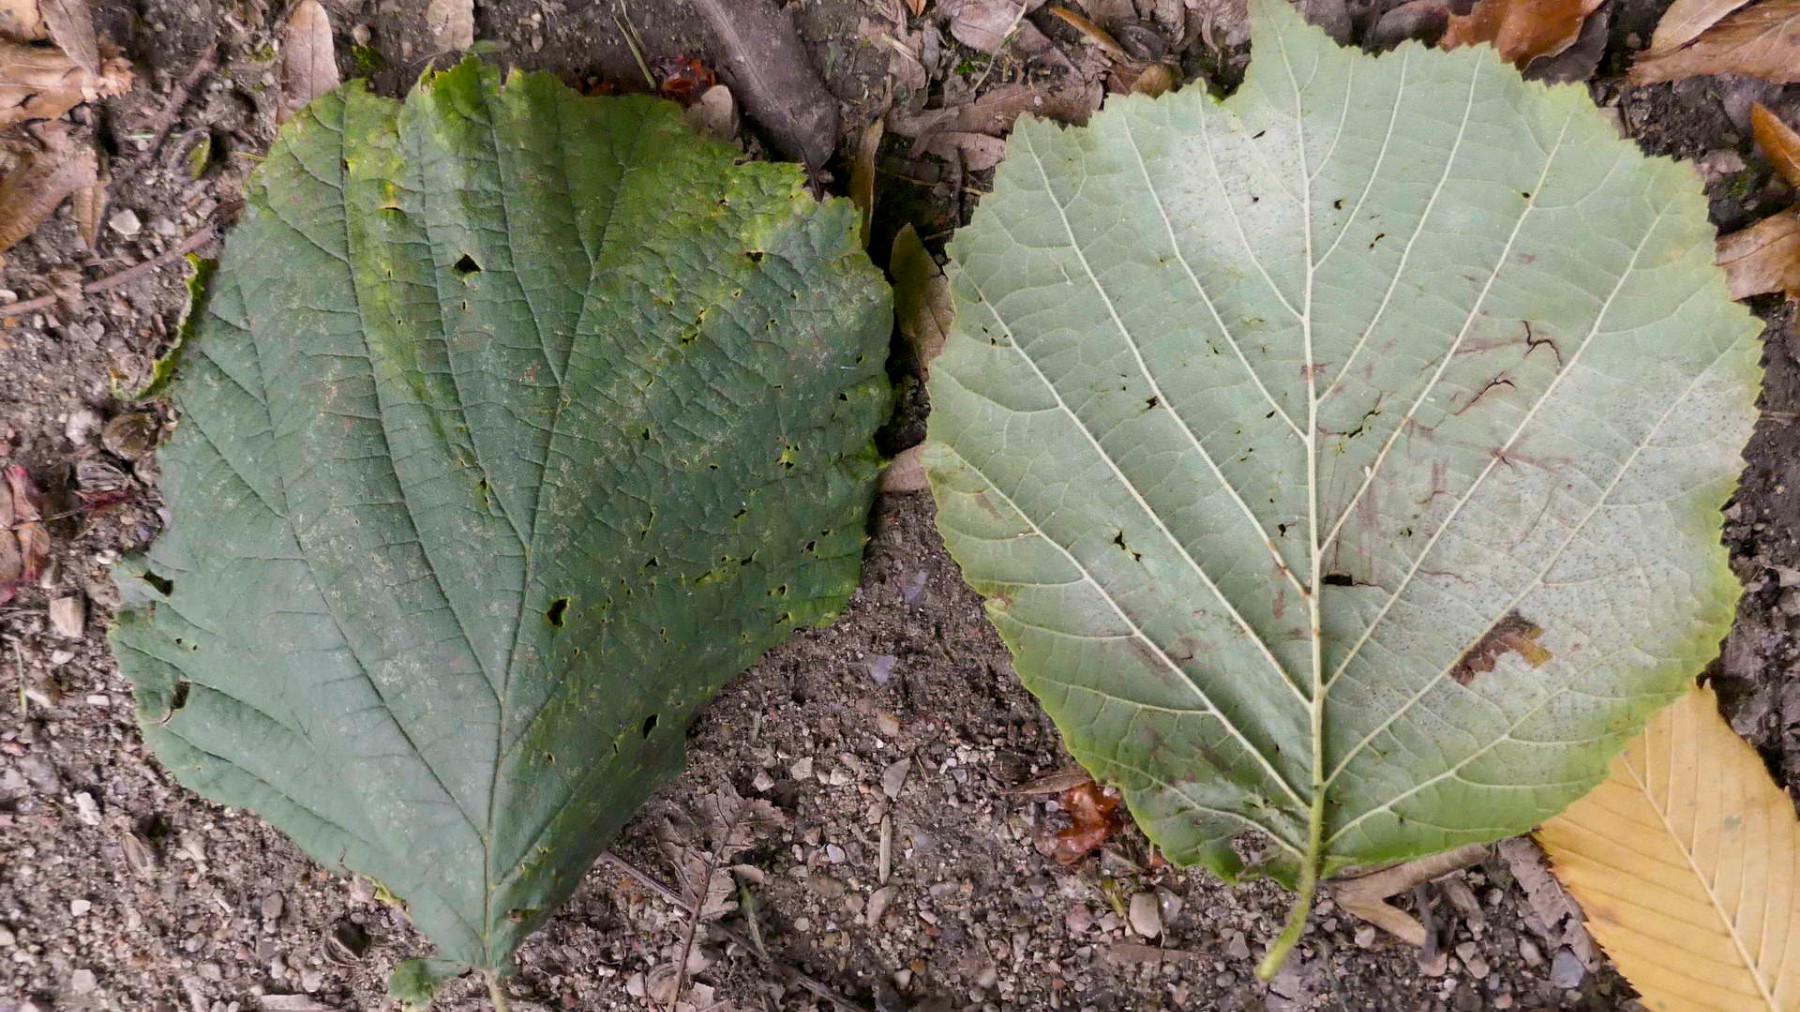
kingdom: Fungi
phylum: Ascomycota
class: Leotiomycetes
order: Helotiales
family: Erysiphaceae
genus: Phyllactinia
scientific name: Phyllactinia guttata
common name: hassel-meldug
